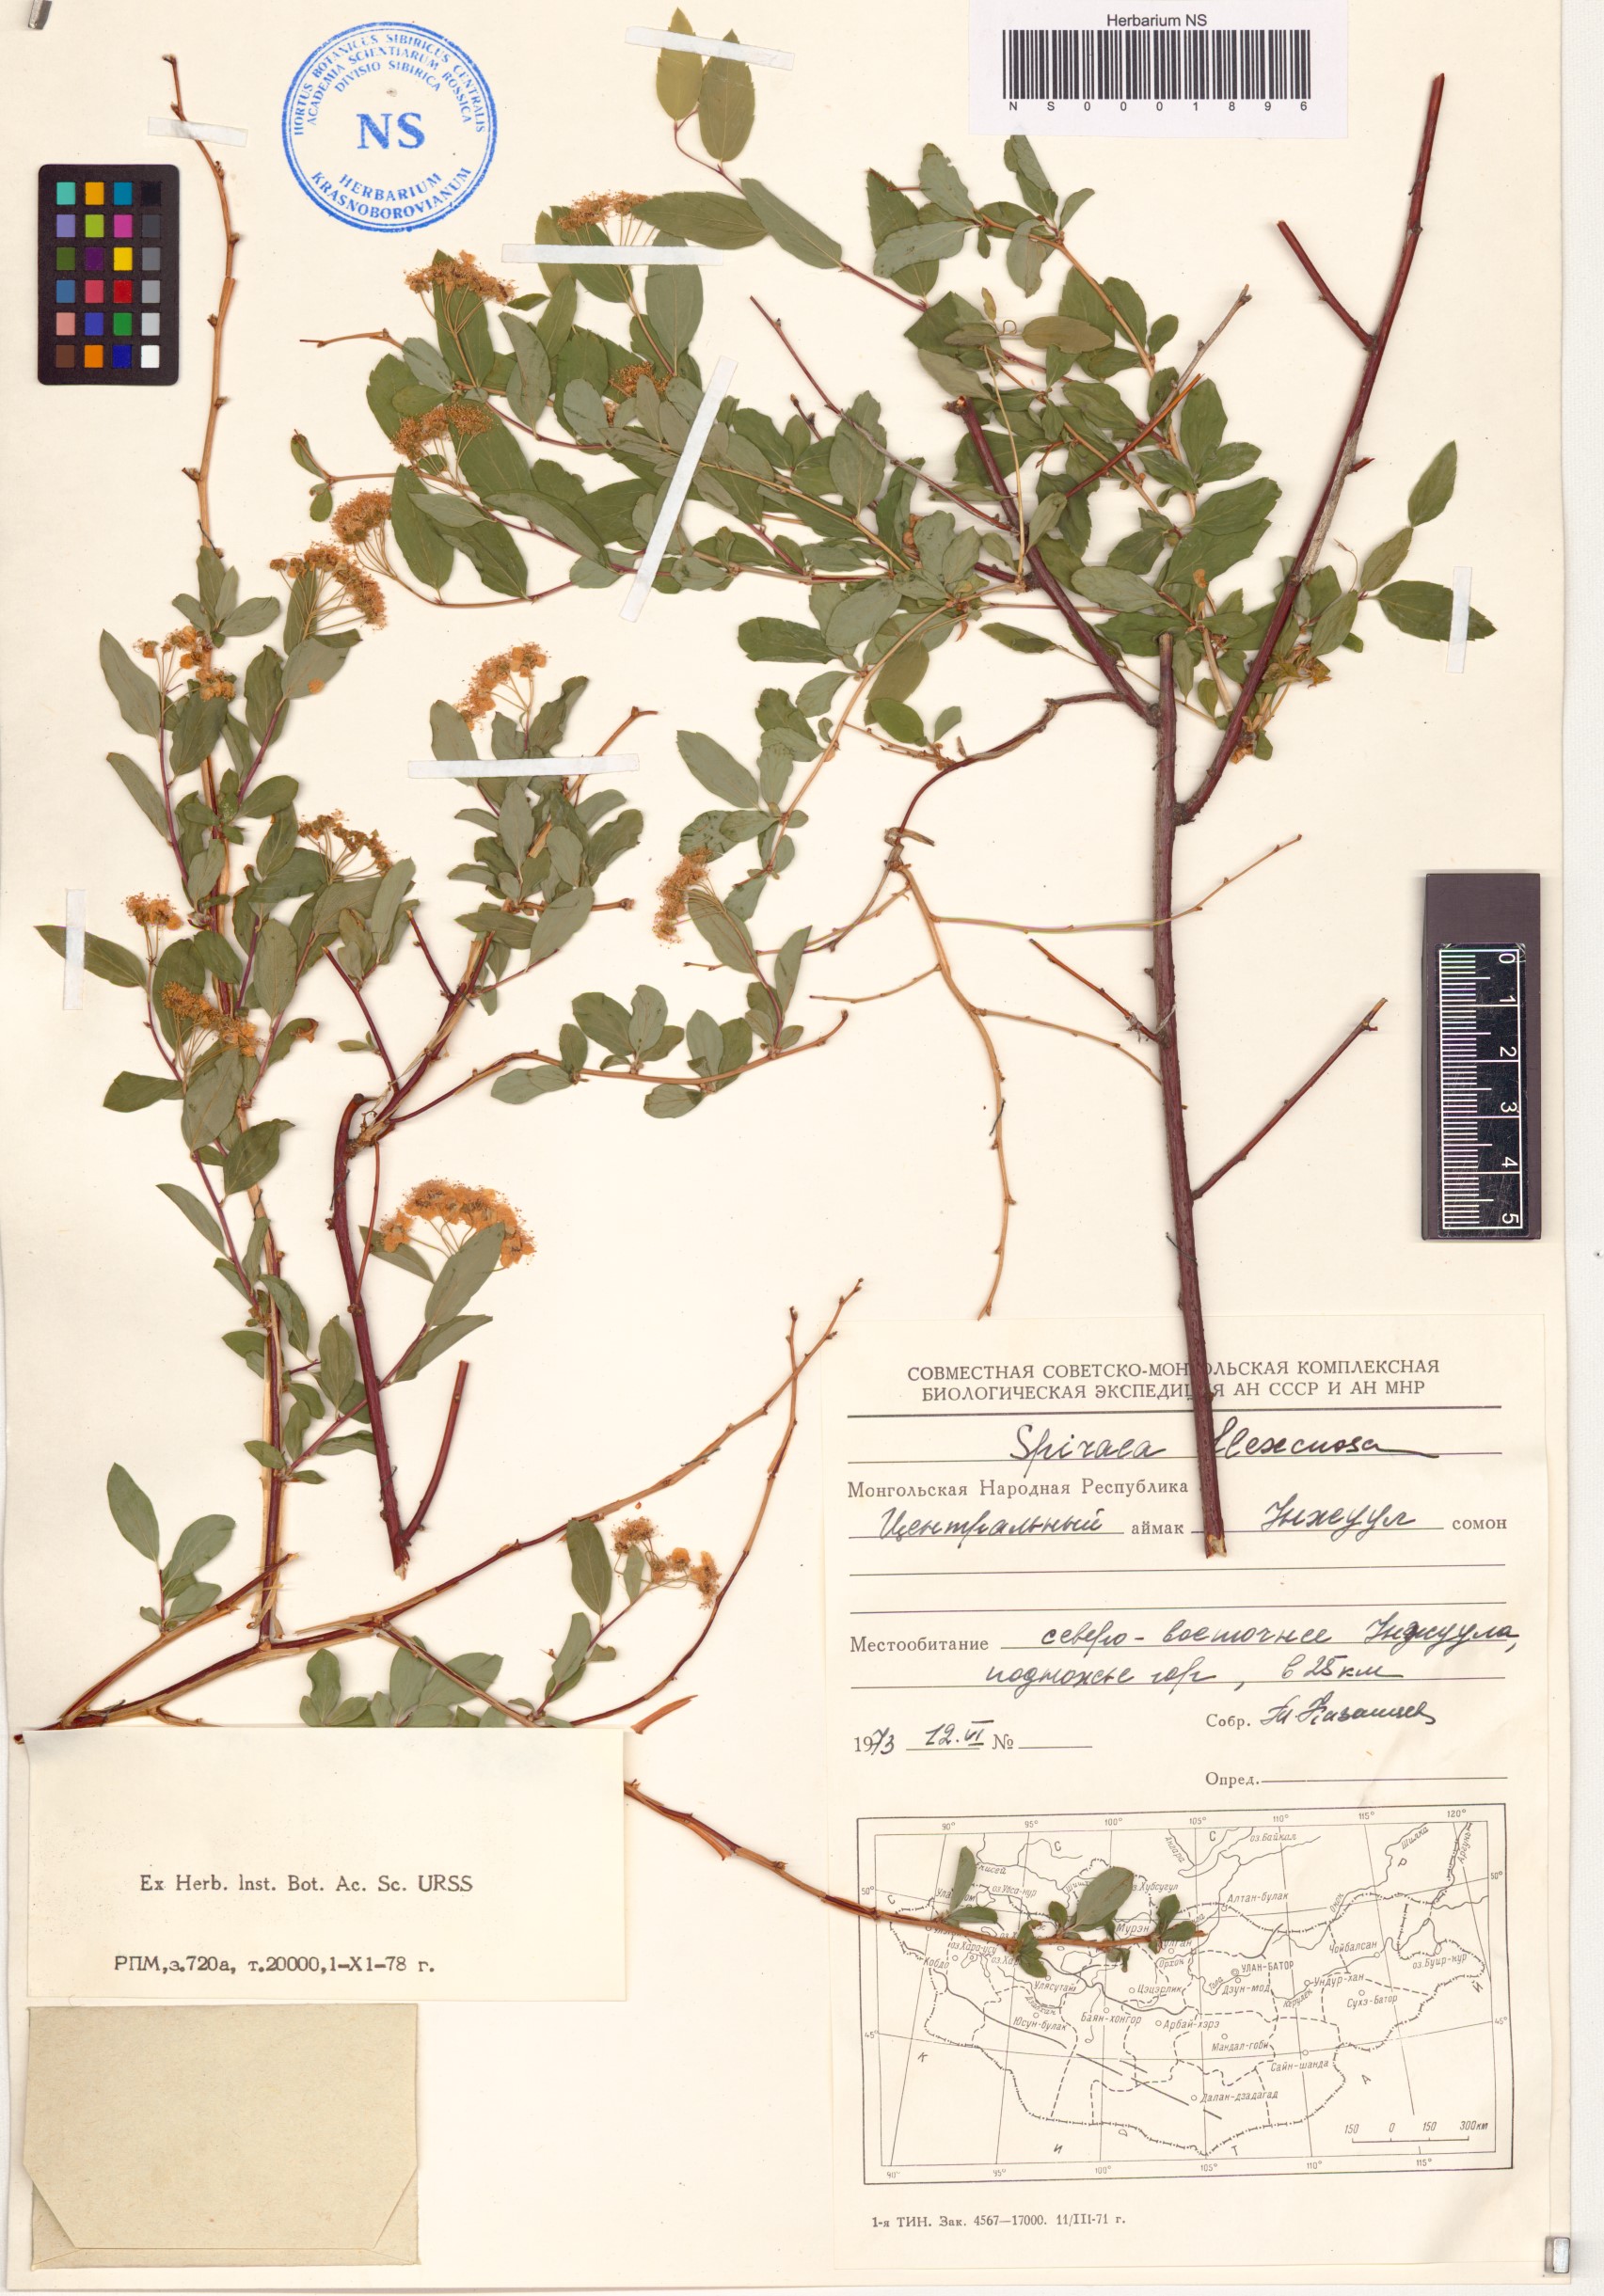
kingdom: Plantae
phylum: Tracheophyta
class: Magnoliopsida
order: Rosales
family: Rosaceae
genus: Spiraea
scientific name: Spiraea flexuosa
